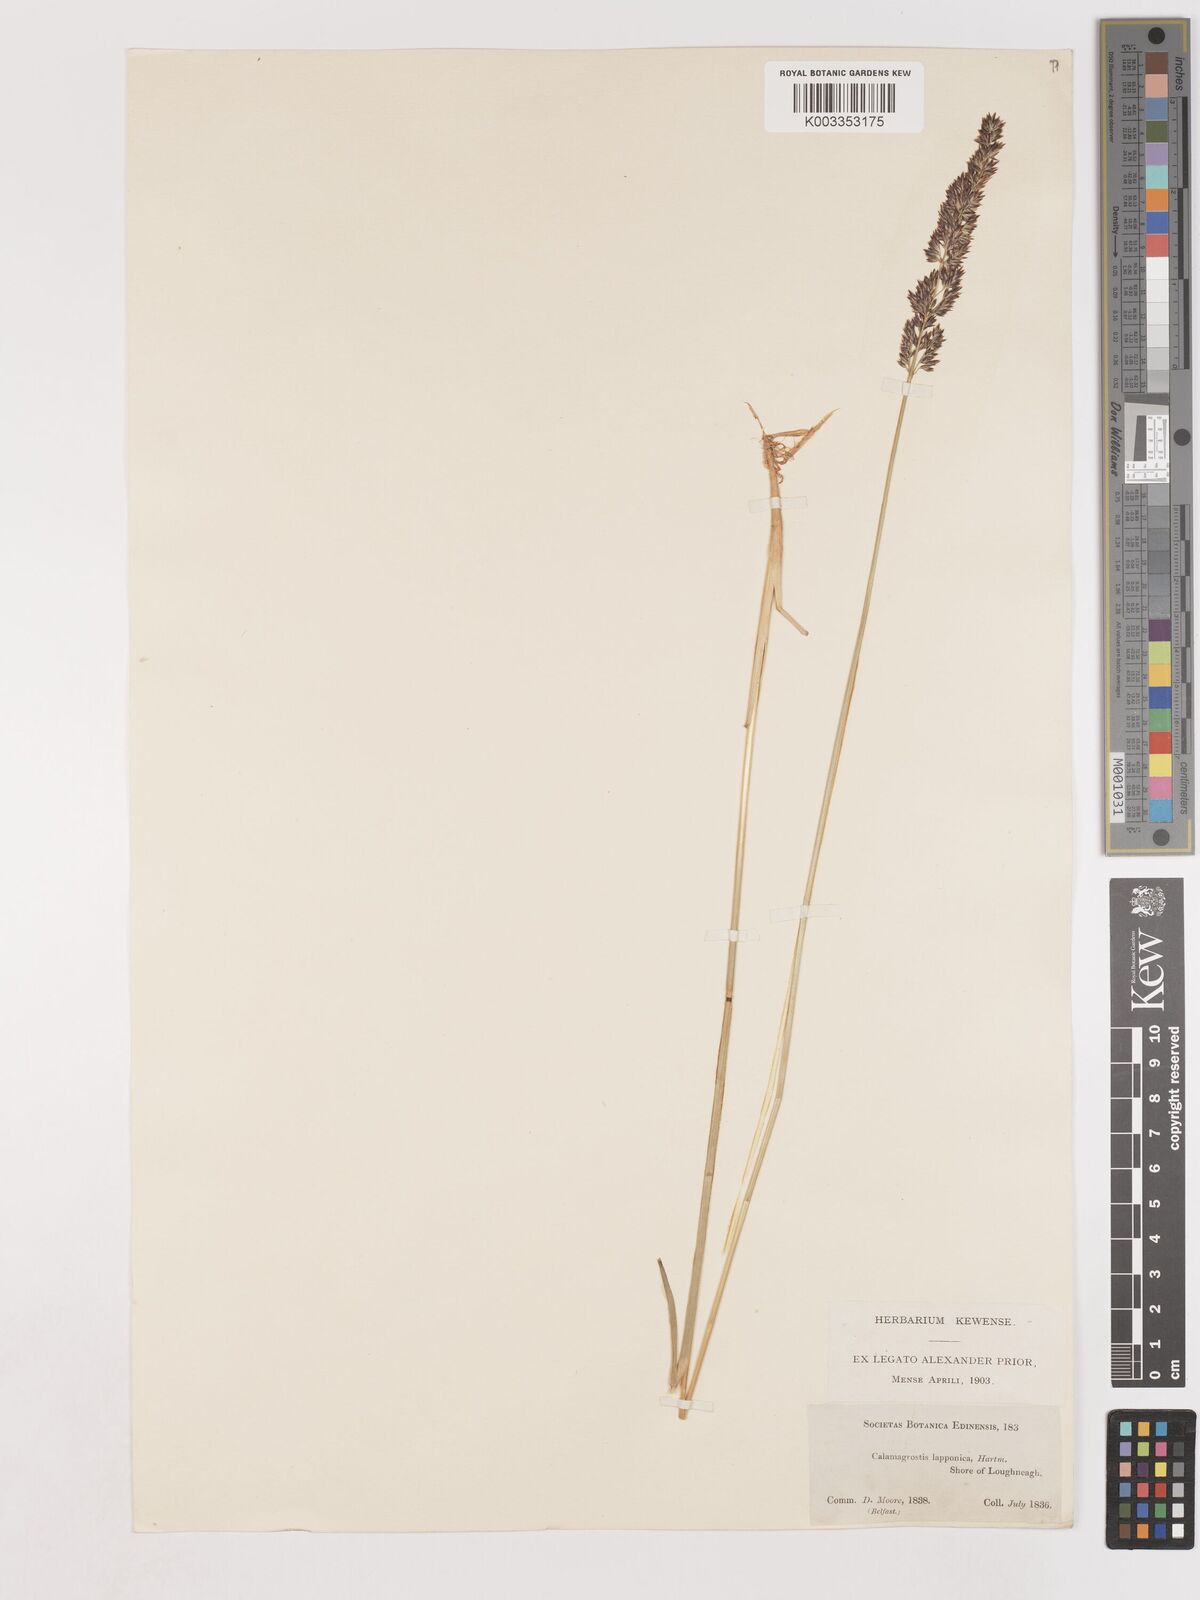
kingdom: Plantae
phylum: Tracheophyta
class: Liliopsida
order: Poales
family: Poaceae
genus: Cinnagrostis
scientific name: Cinnagrostis recta
